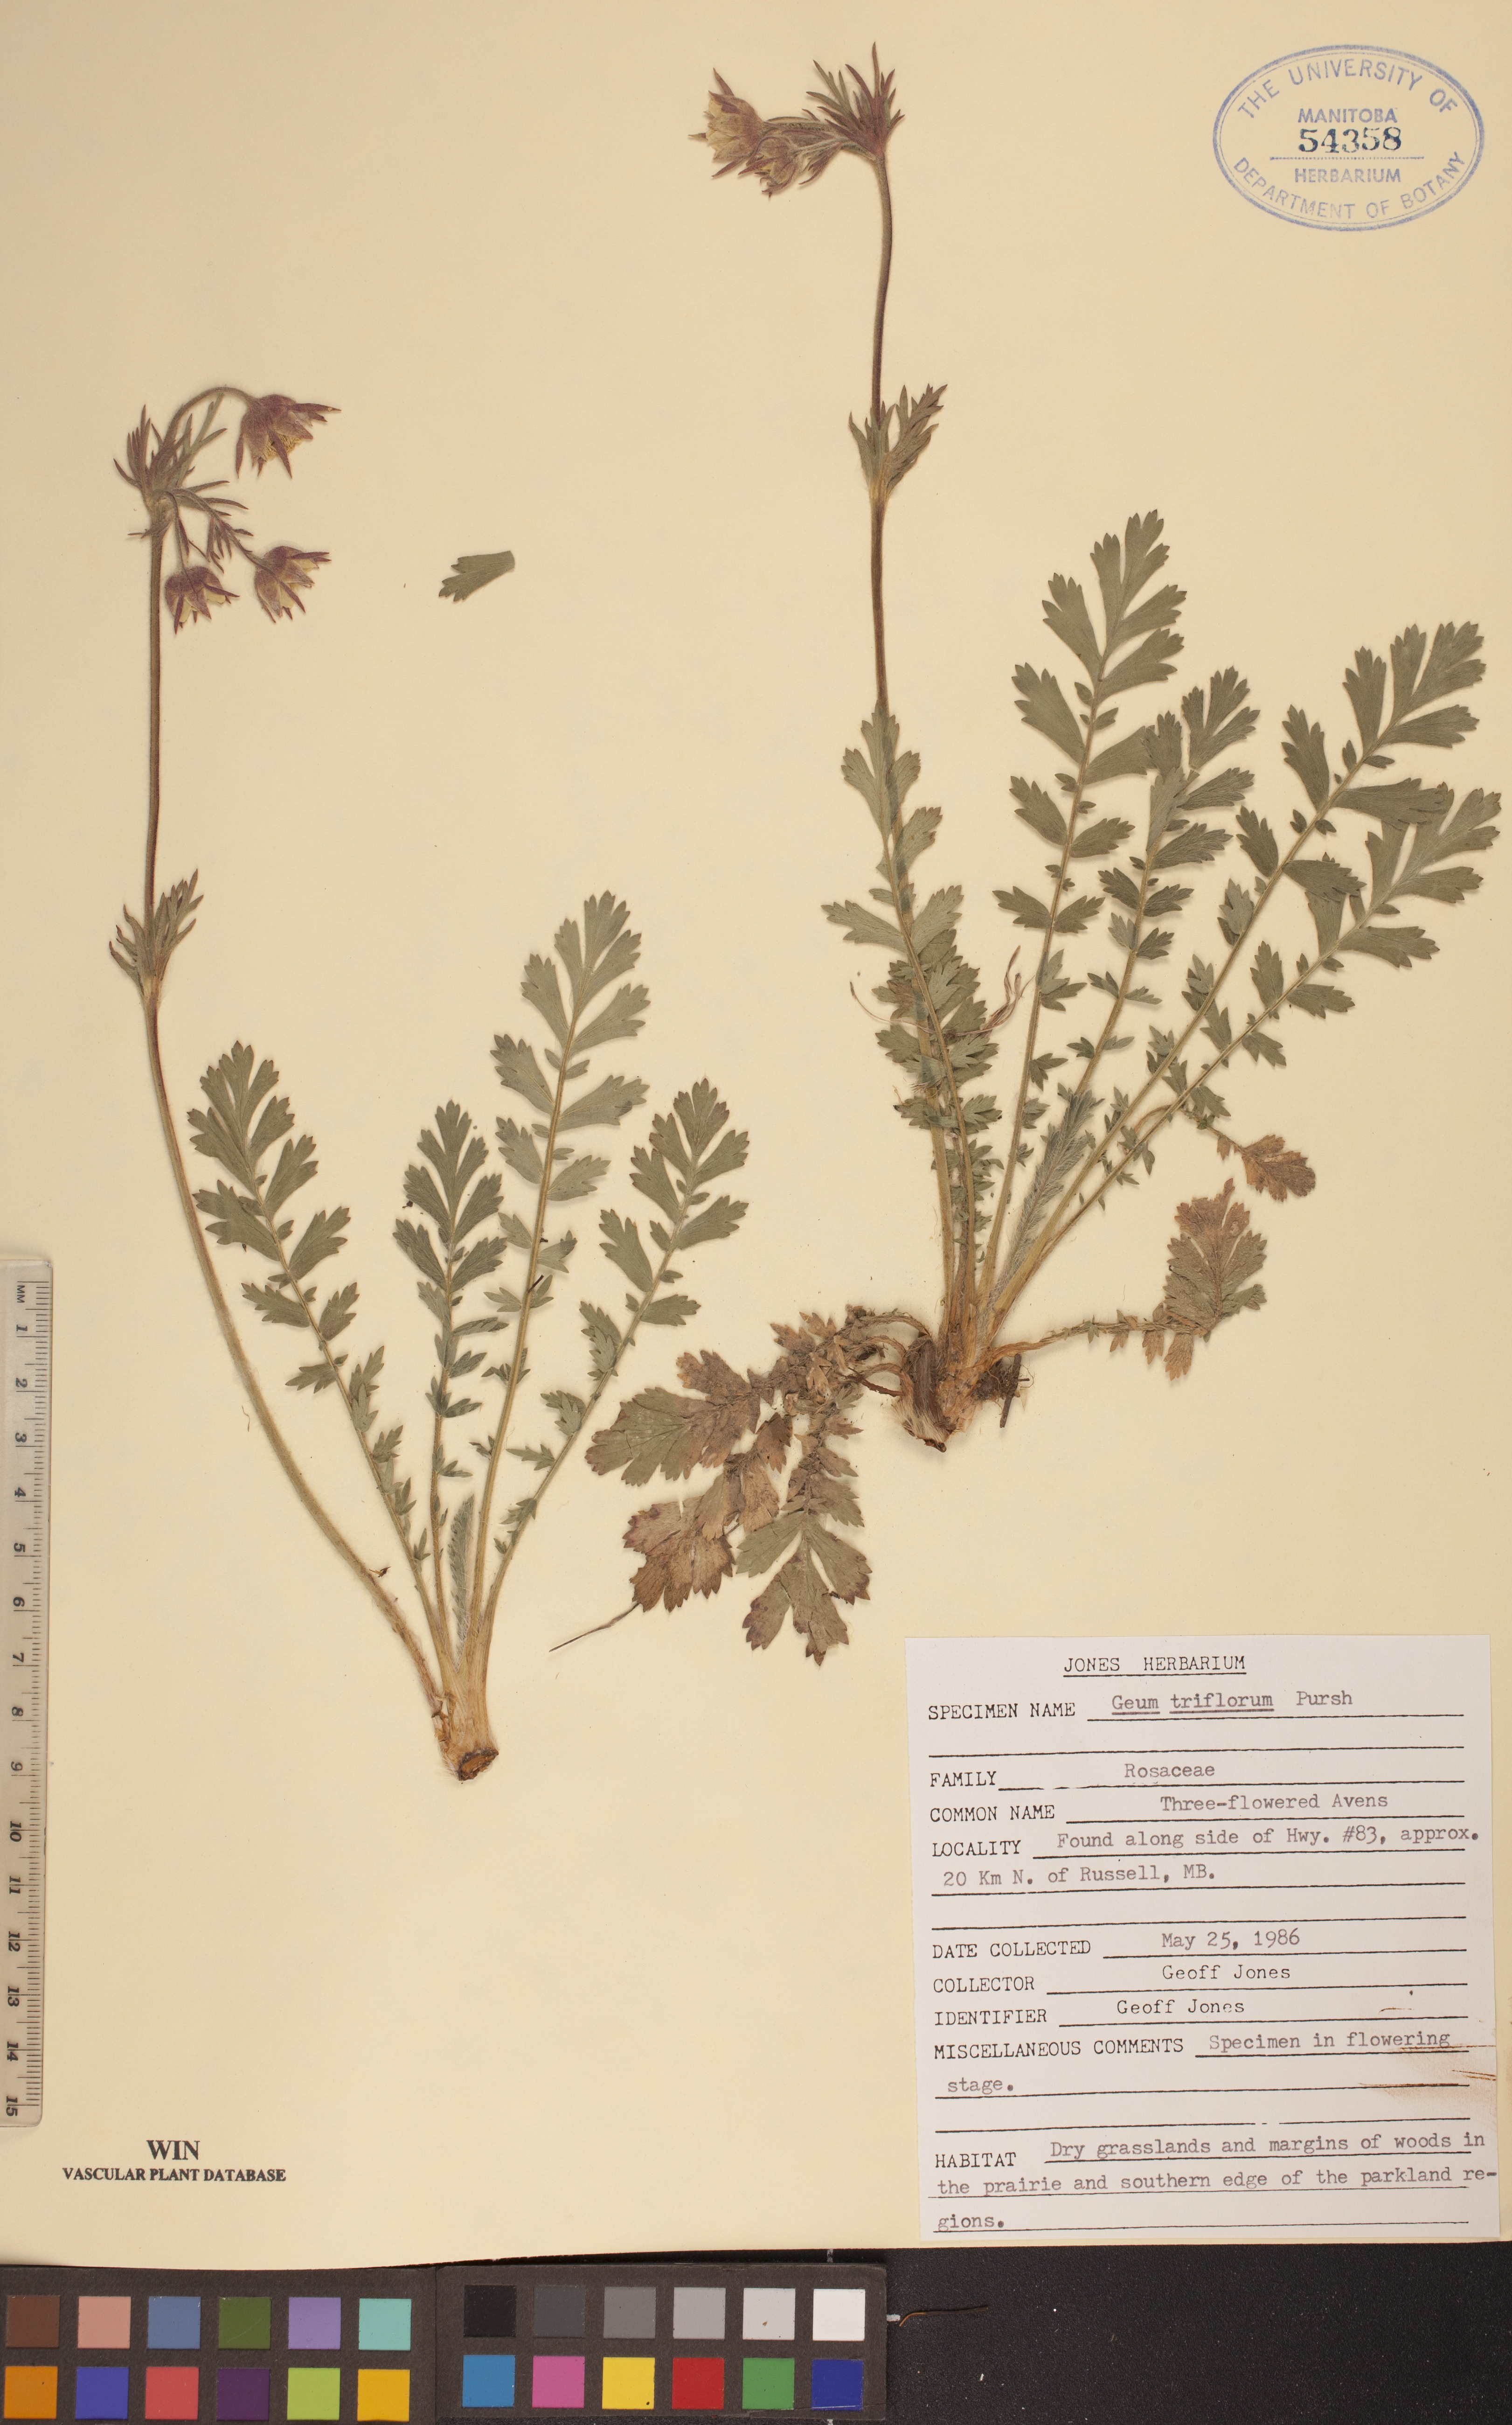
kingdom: Plantae
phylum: Tracheophyta
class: Magnoliopsida
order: Rosales
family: Rosaceae
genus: Geum
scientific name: Geum triflorum
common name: Old man's whiskers
